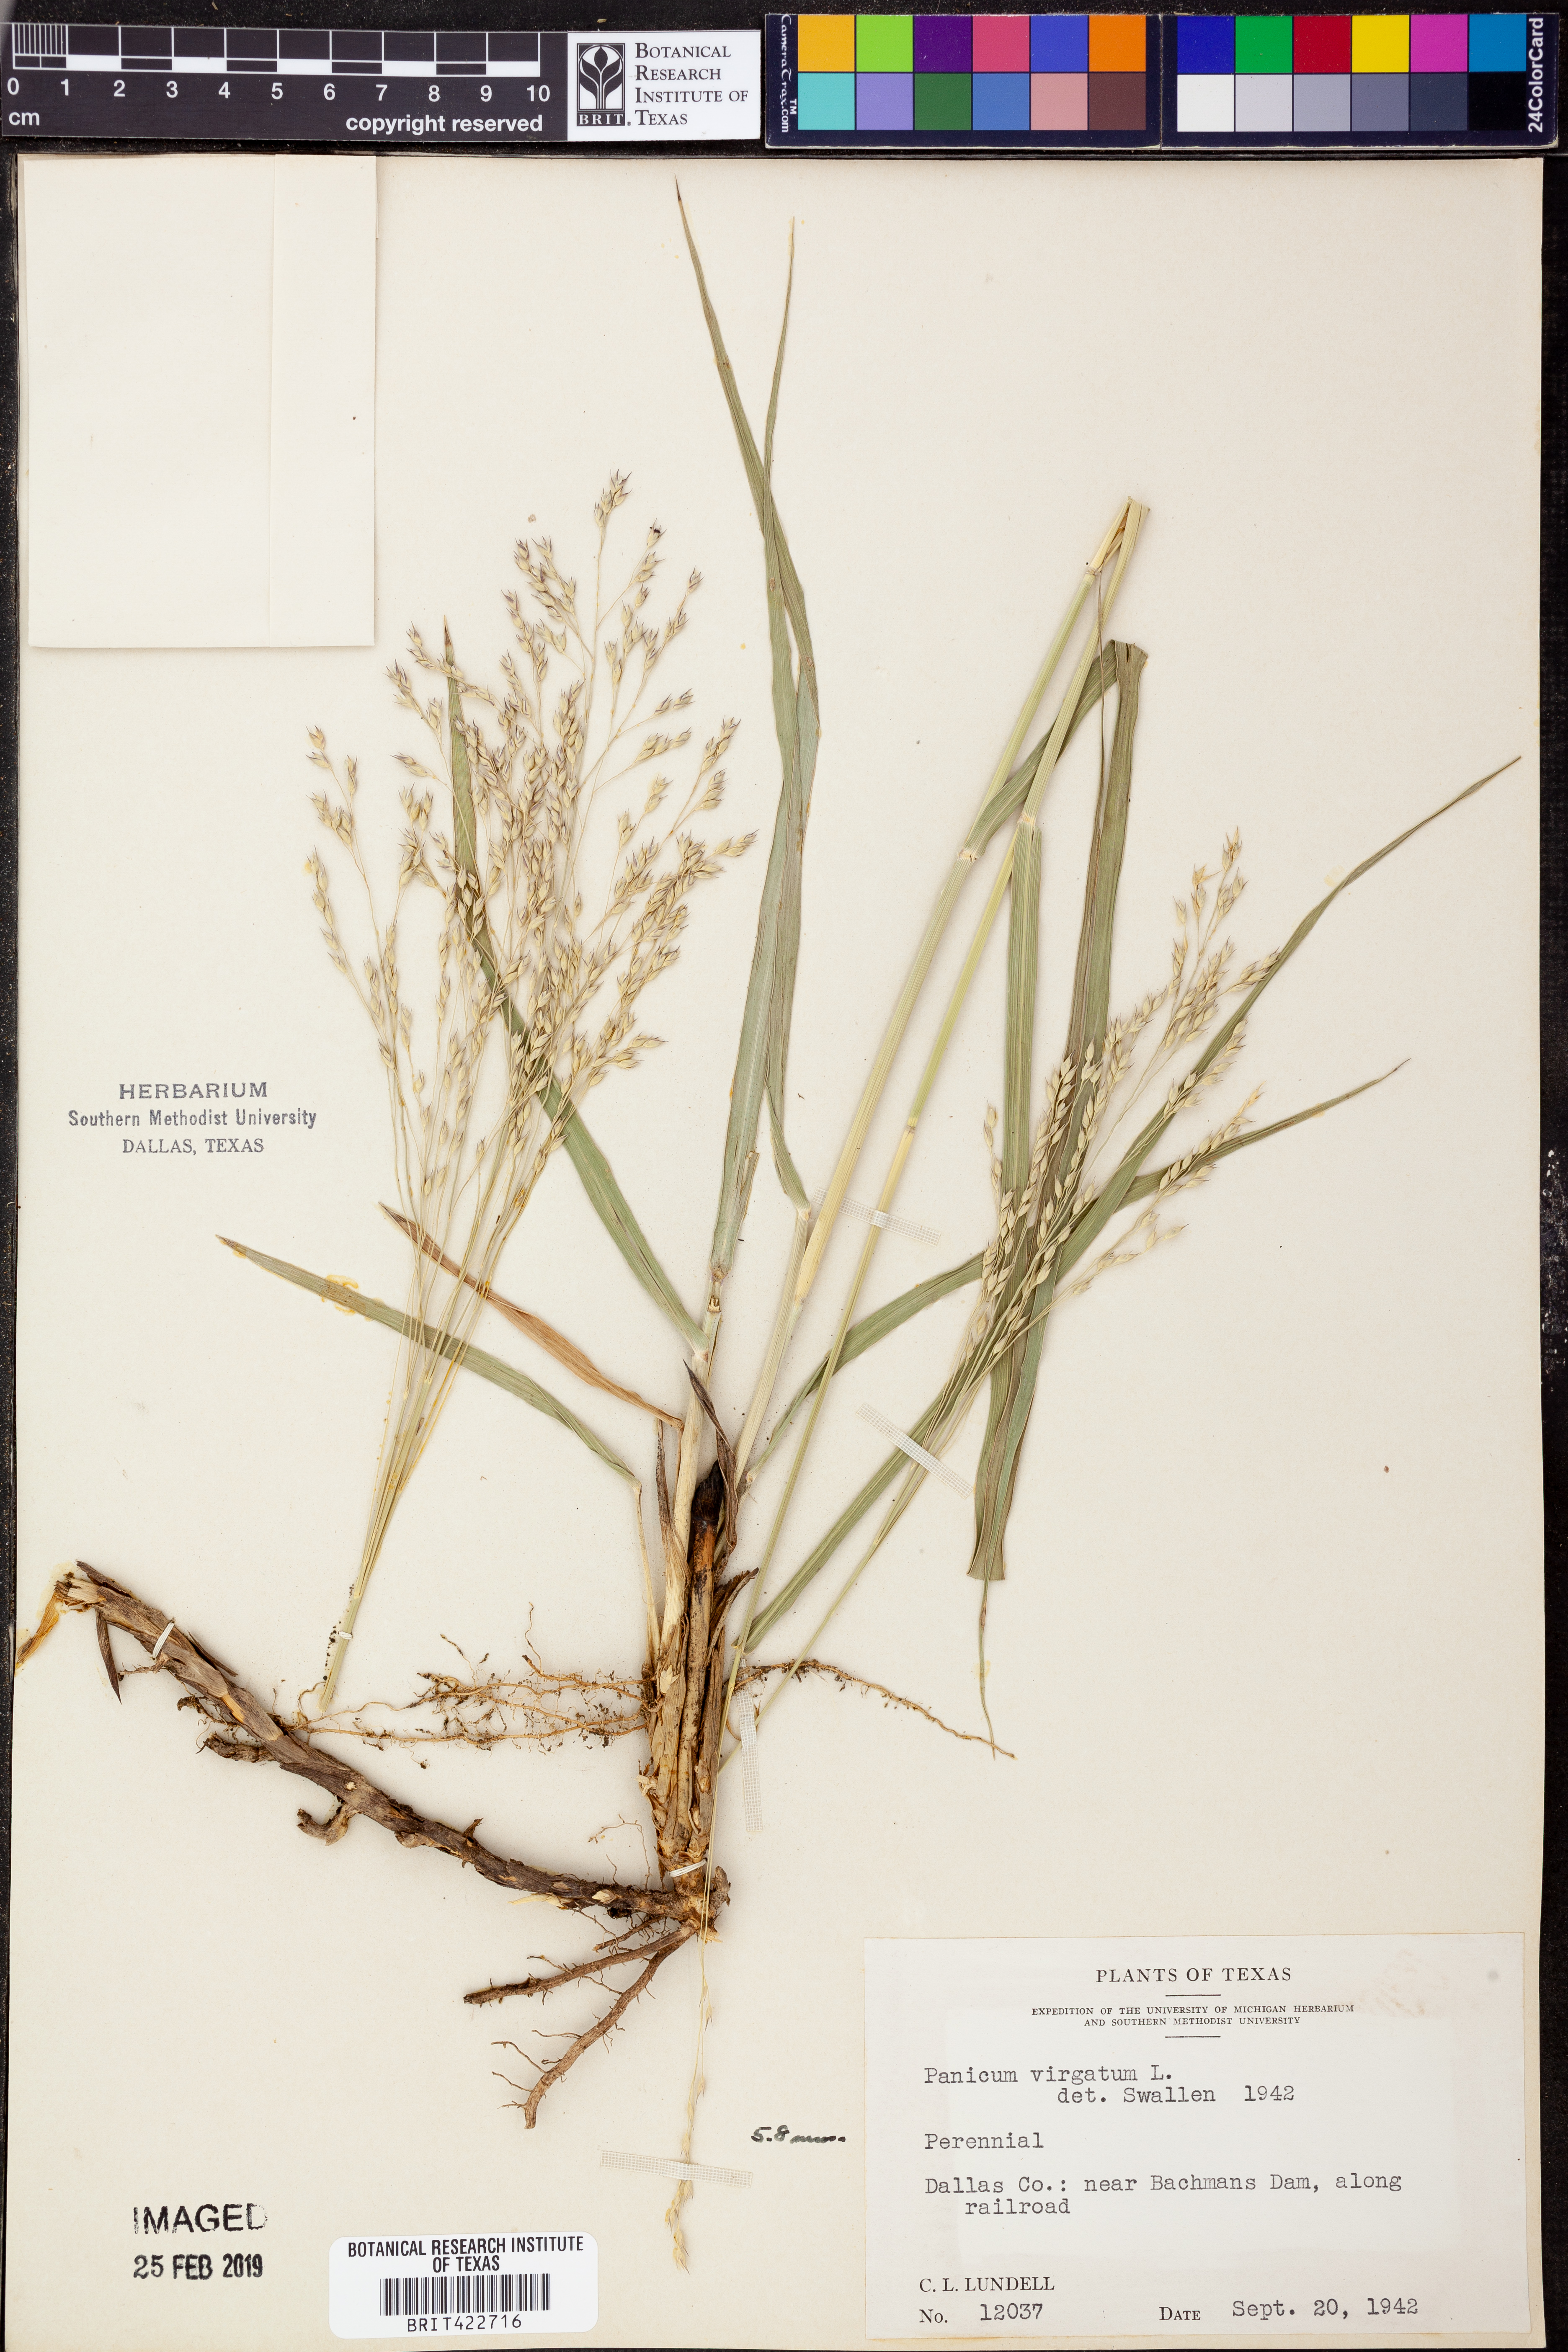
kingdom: Plantae
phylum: Tracheophyta
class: Liliopsida
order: Poales
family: Poaceae
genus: Panicum
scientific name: Panicum virgatum
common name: Switchgrass
